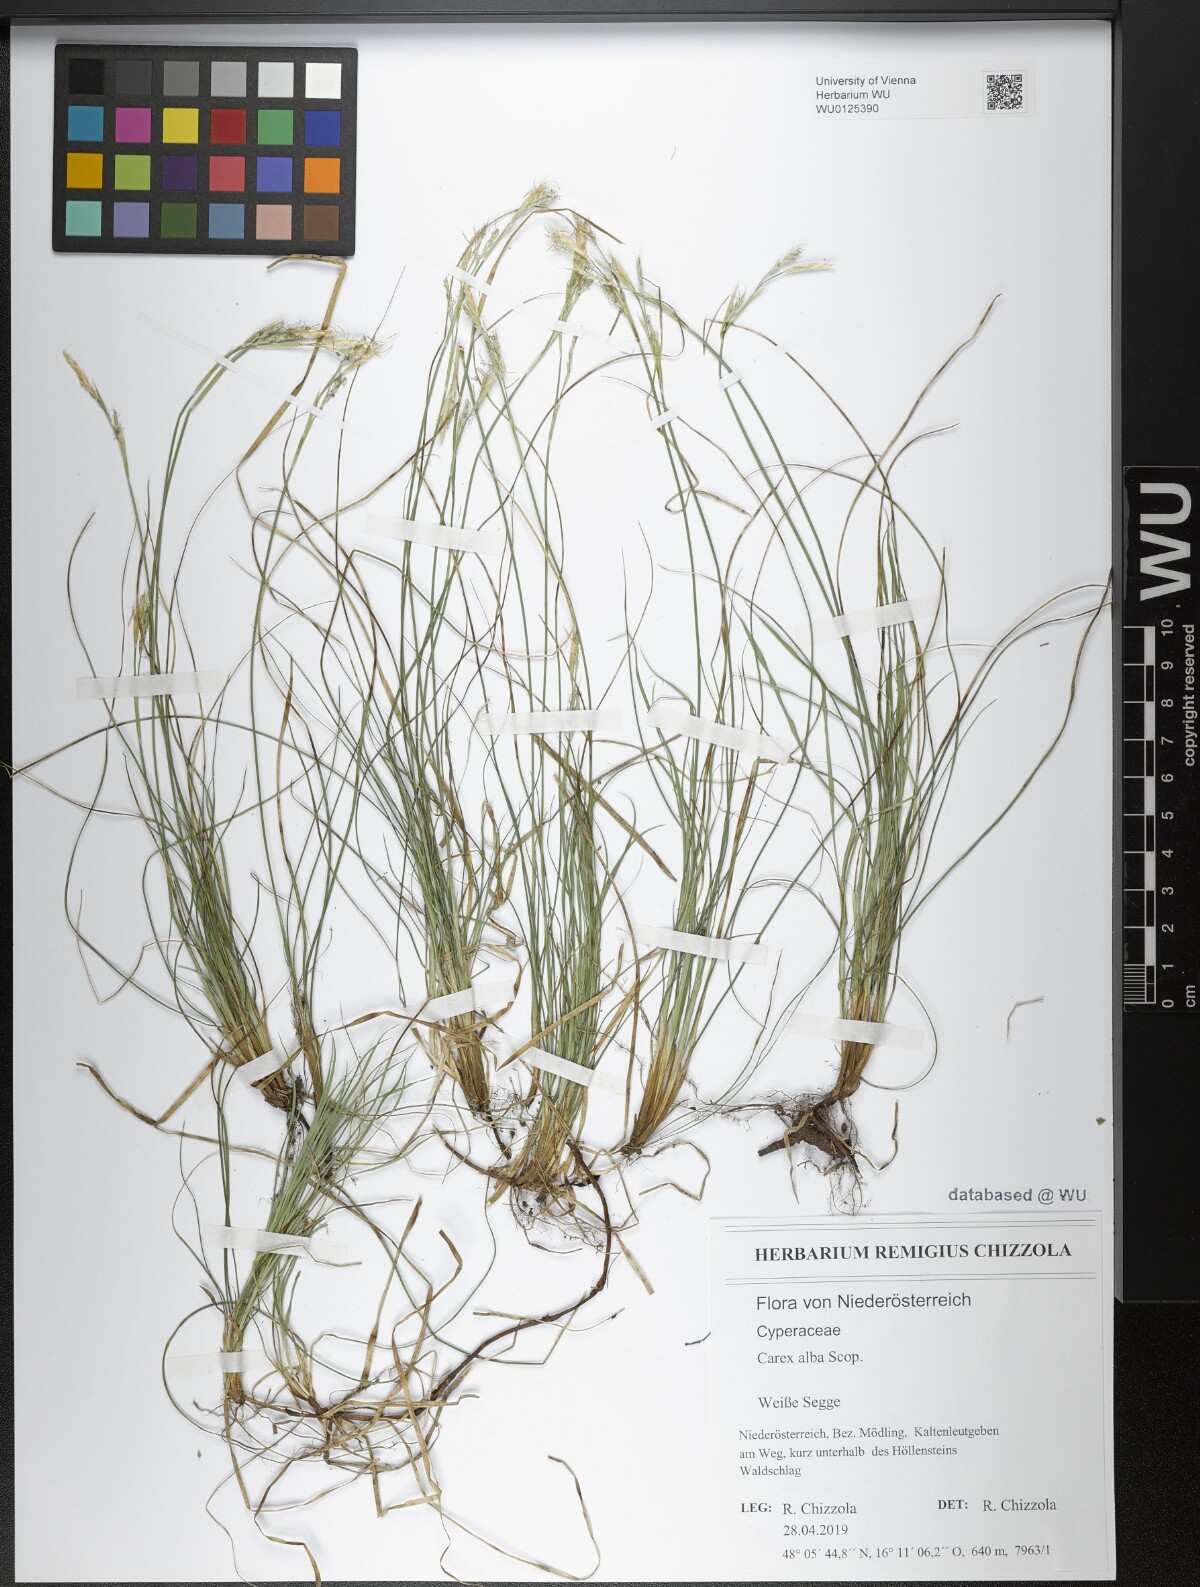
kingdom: Plantae
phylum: Tracheophyta
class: Liliopsida
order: Poales
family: Cyperaceae
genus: Carex
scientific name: Carex alba
